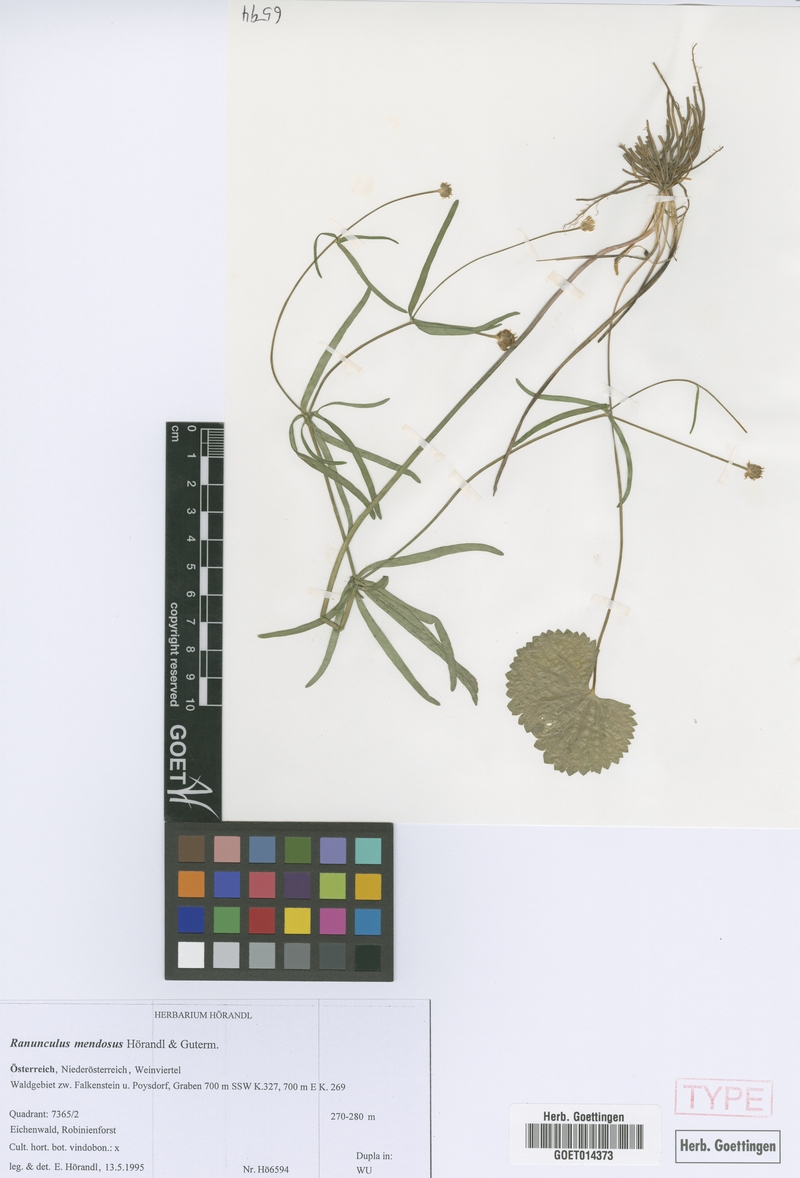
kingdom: Plantae
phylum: Tracheophyta
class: Magnoliopsida
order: Ranunculales
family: Ranunculaceae
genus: Ranunculus
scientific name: Ranunculus mendosus
